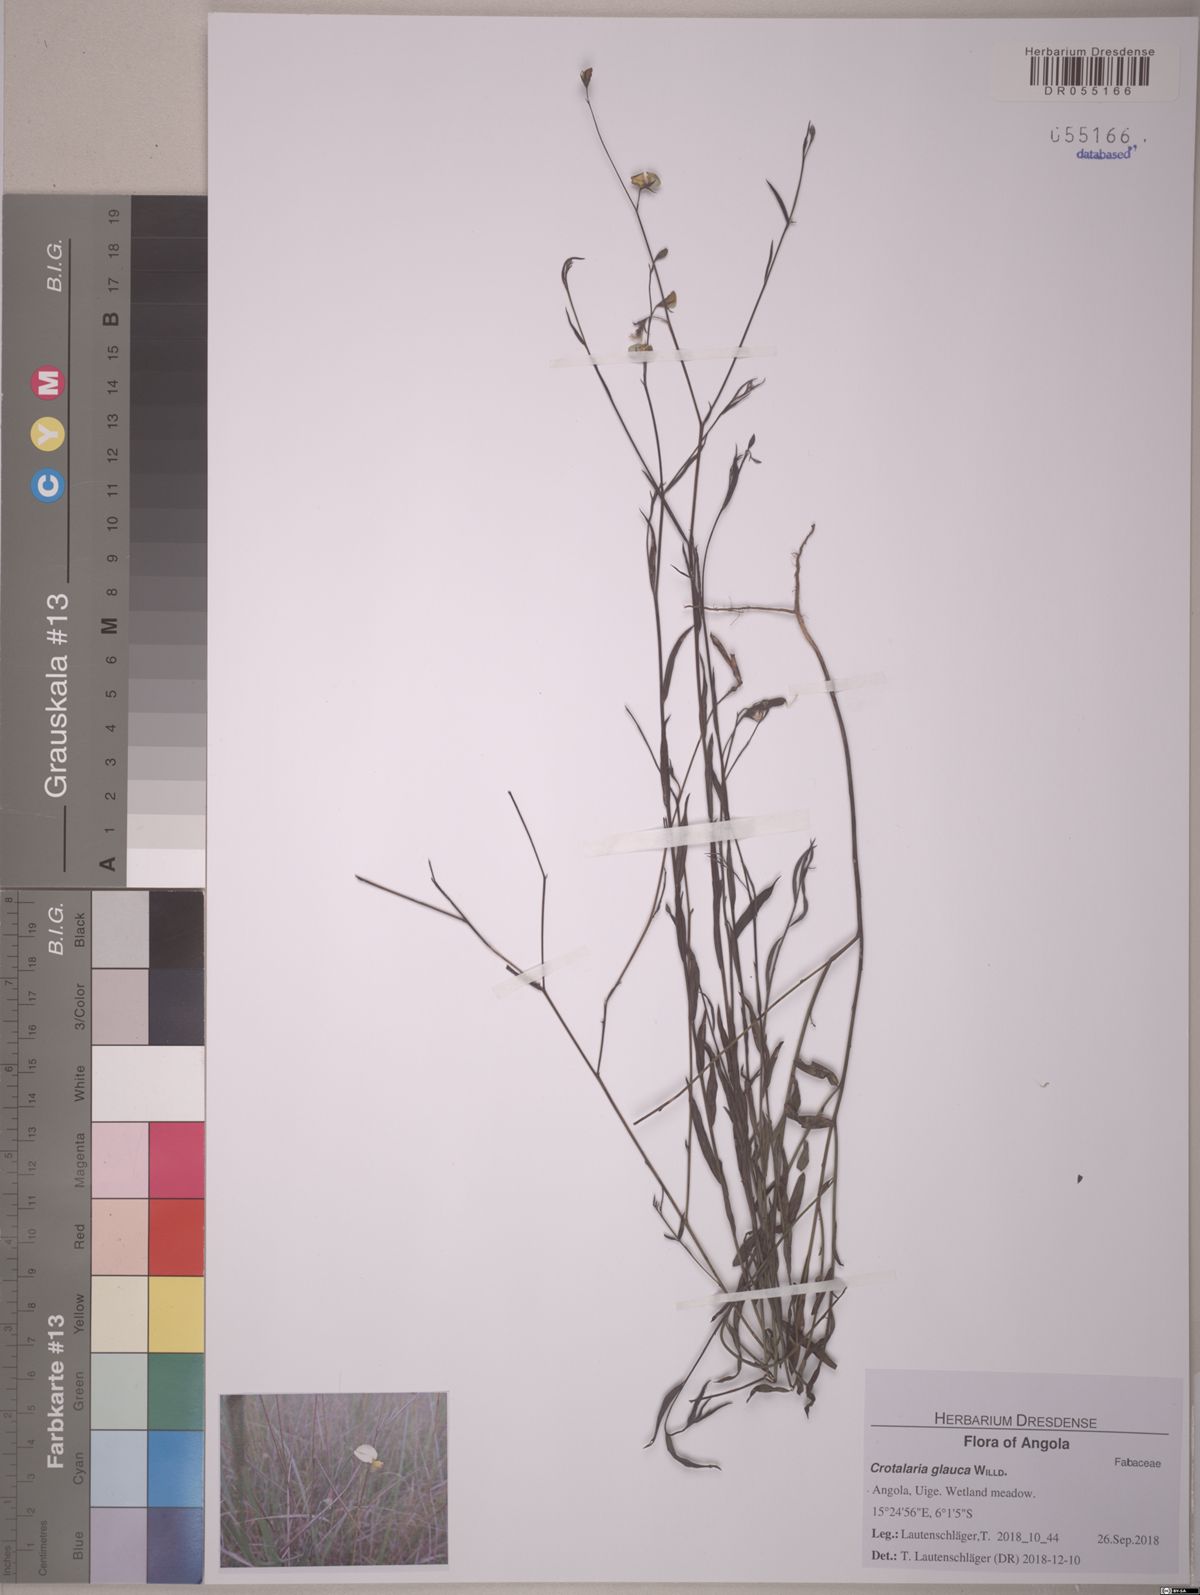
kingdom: Plantae
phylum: Tracheophyta
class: Magnoliopsida
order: Fabales
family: Fabaceae
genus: Crotalaria
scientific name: Crotalaria glauca
